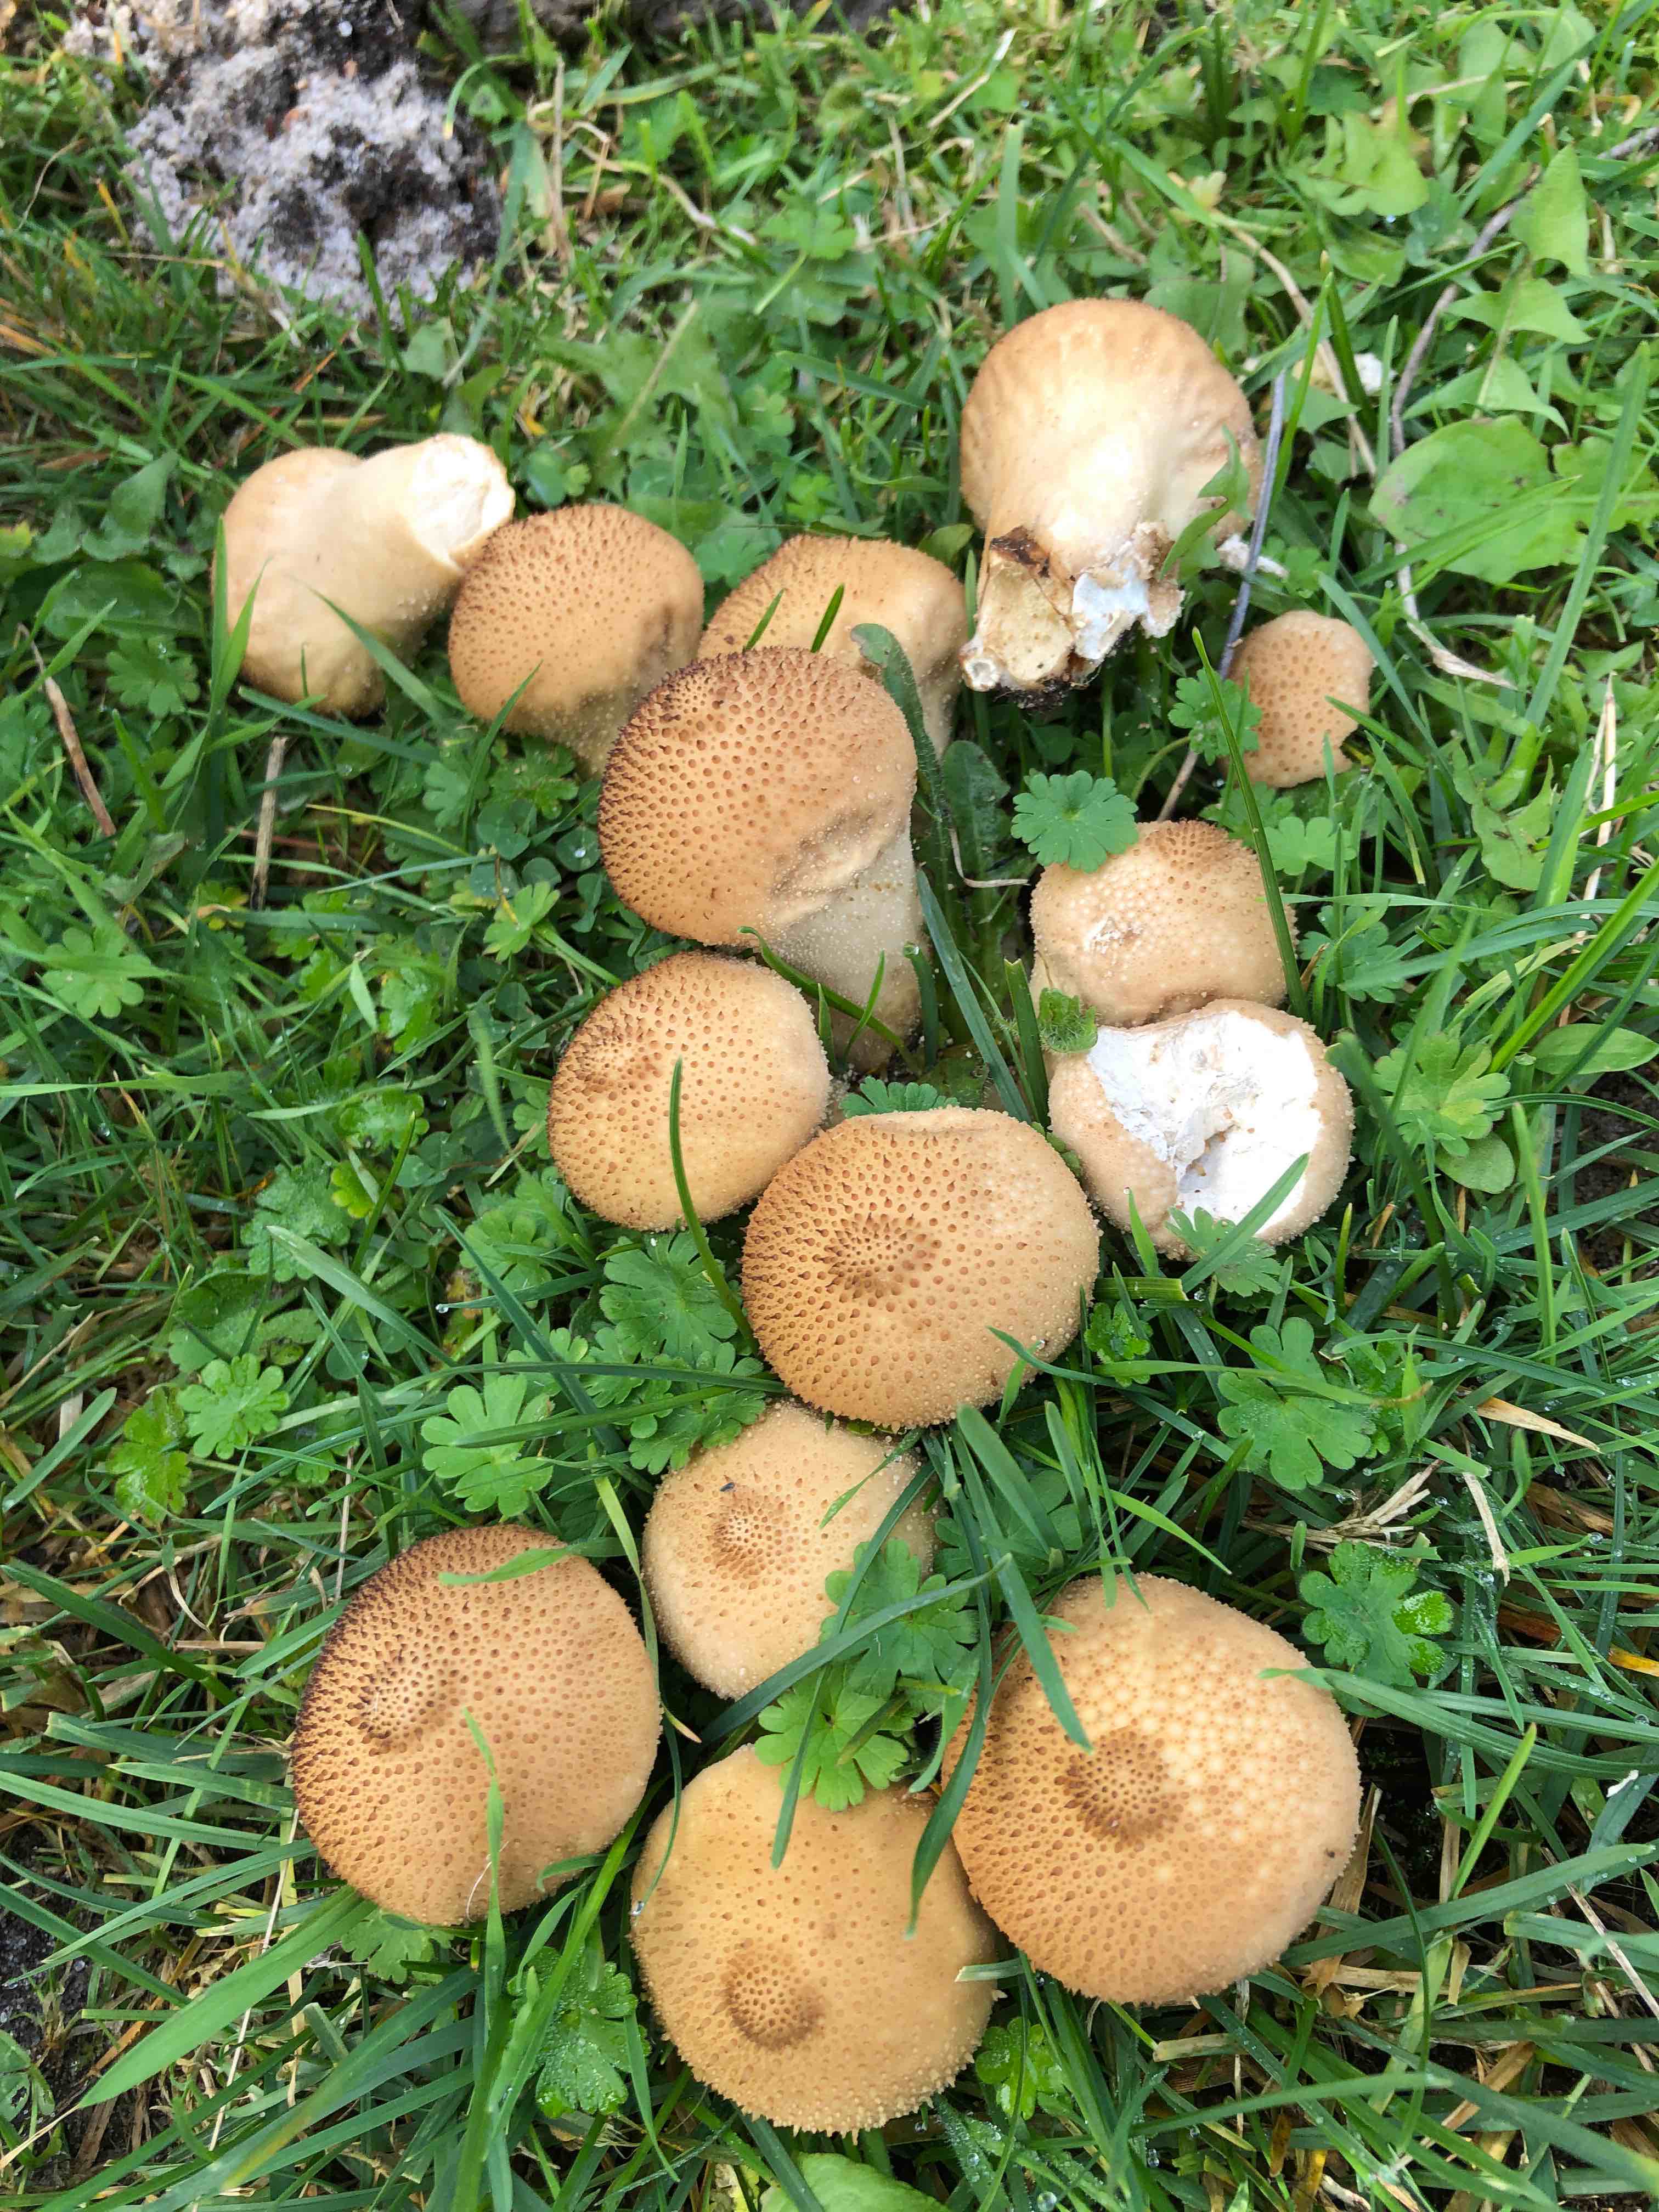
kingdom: Fungi
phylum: Basidiomycota
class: Agaricomycetes
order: Agaricales
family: Lycoperdaceae
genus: Lycoperdon
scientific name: Lycoperdon nigrescens
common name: sortagtig støvbold
